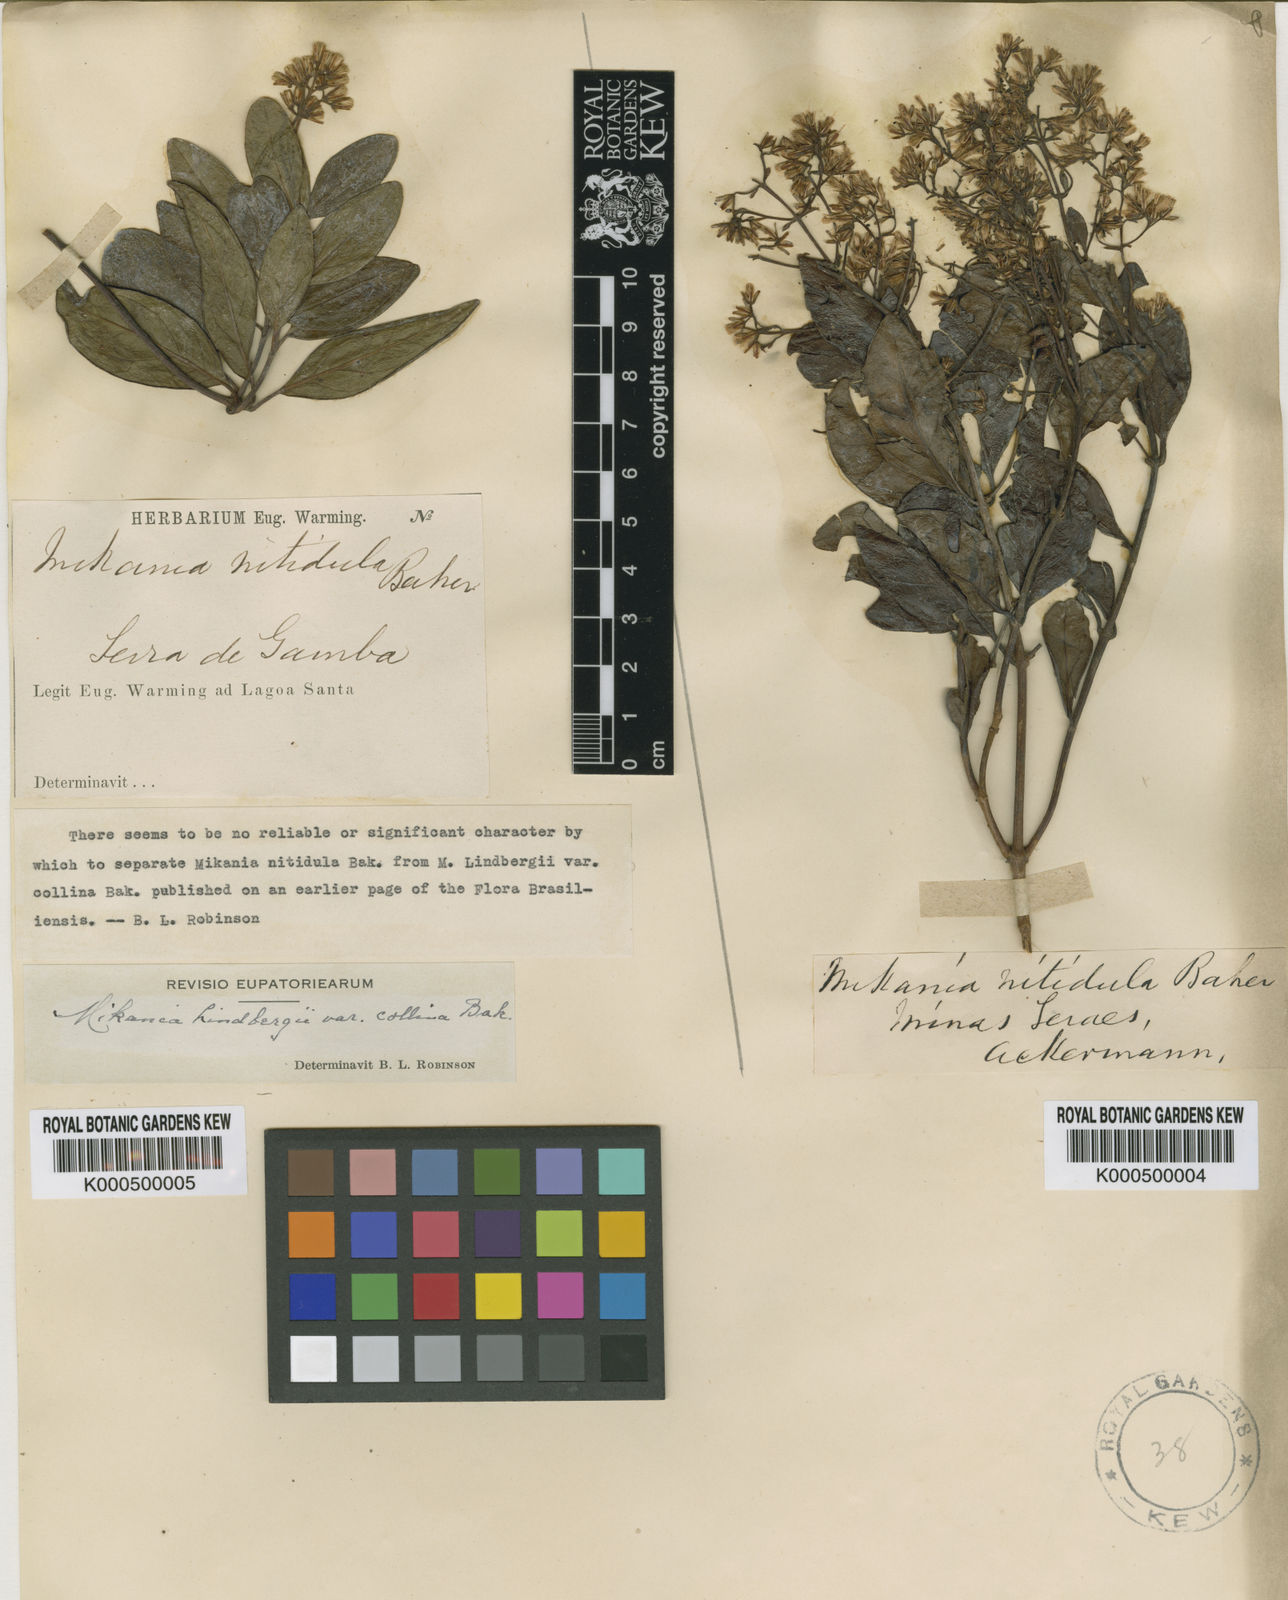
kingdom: Plantae
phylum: Tracheophyta
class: Magnoliopsida
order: Asterales
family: Asteraceae
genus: Mikania
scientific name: Mikania lindbergii
